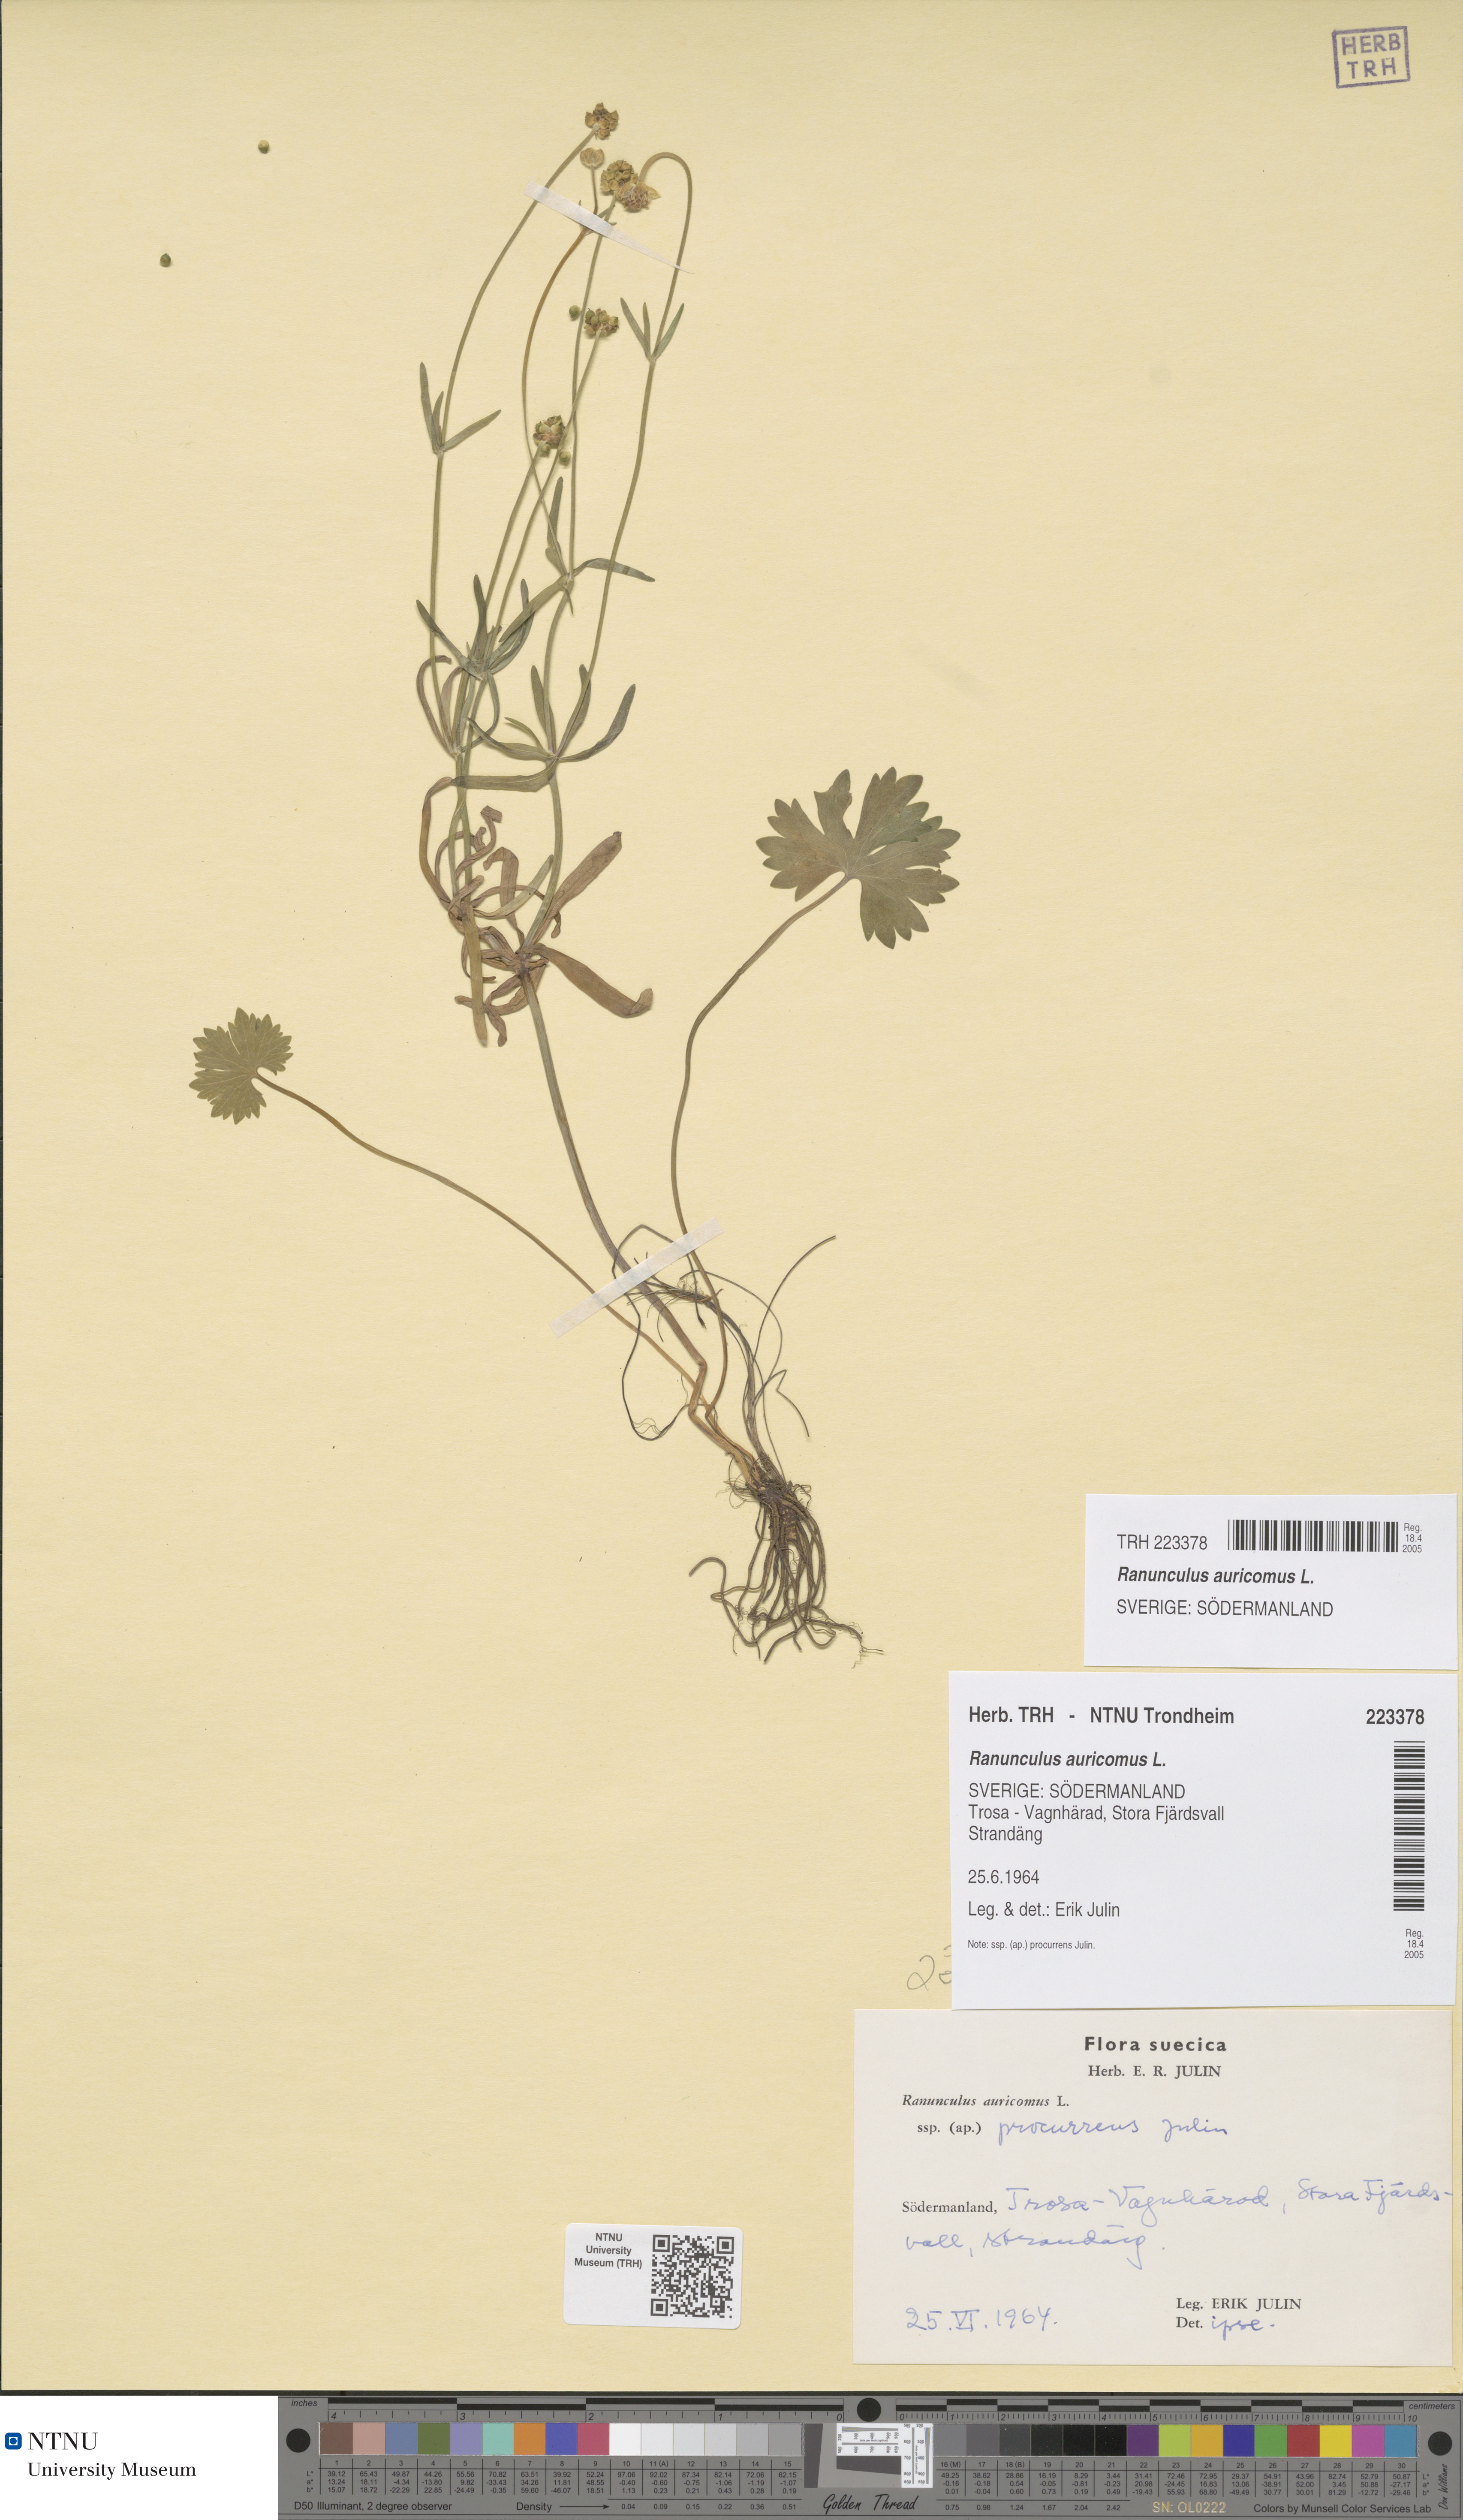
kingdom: Plantae
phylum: Tracheophyta
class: Magnoliopsida
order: Ranunculales
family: Ranunculaceae
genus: Ranunculus
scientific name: Ranunculus auricomus
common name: Goldilocks buttercup
